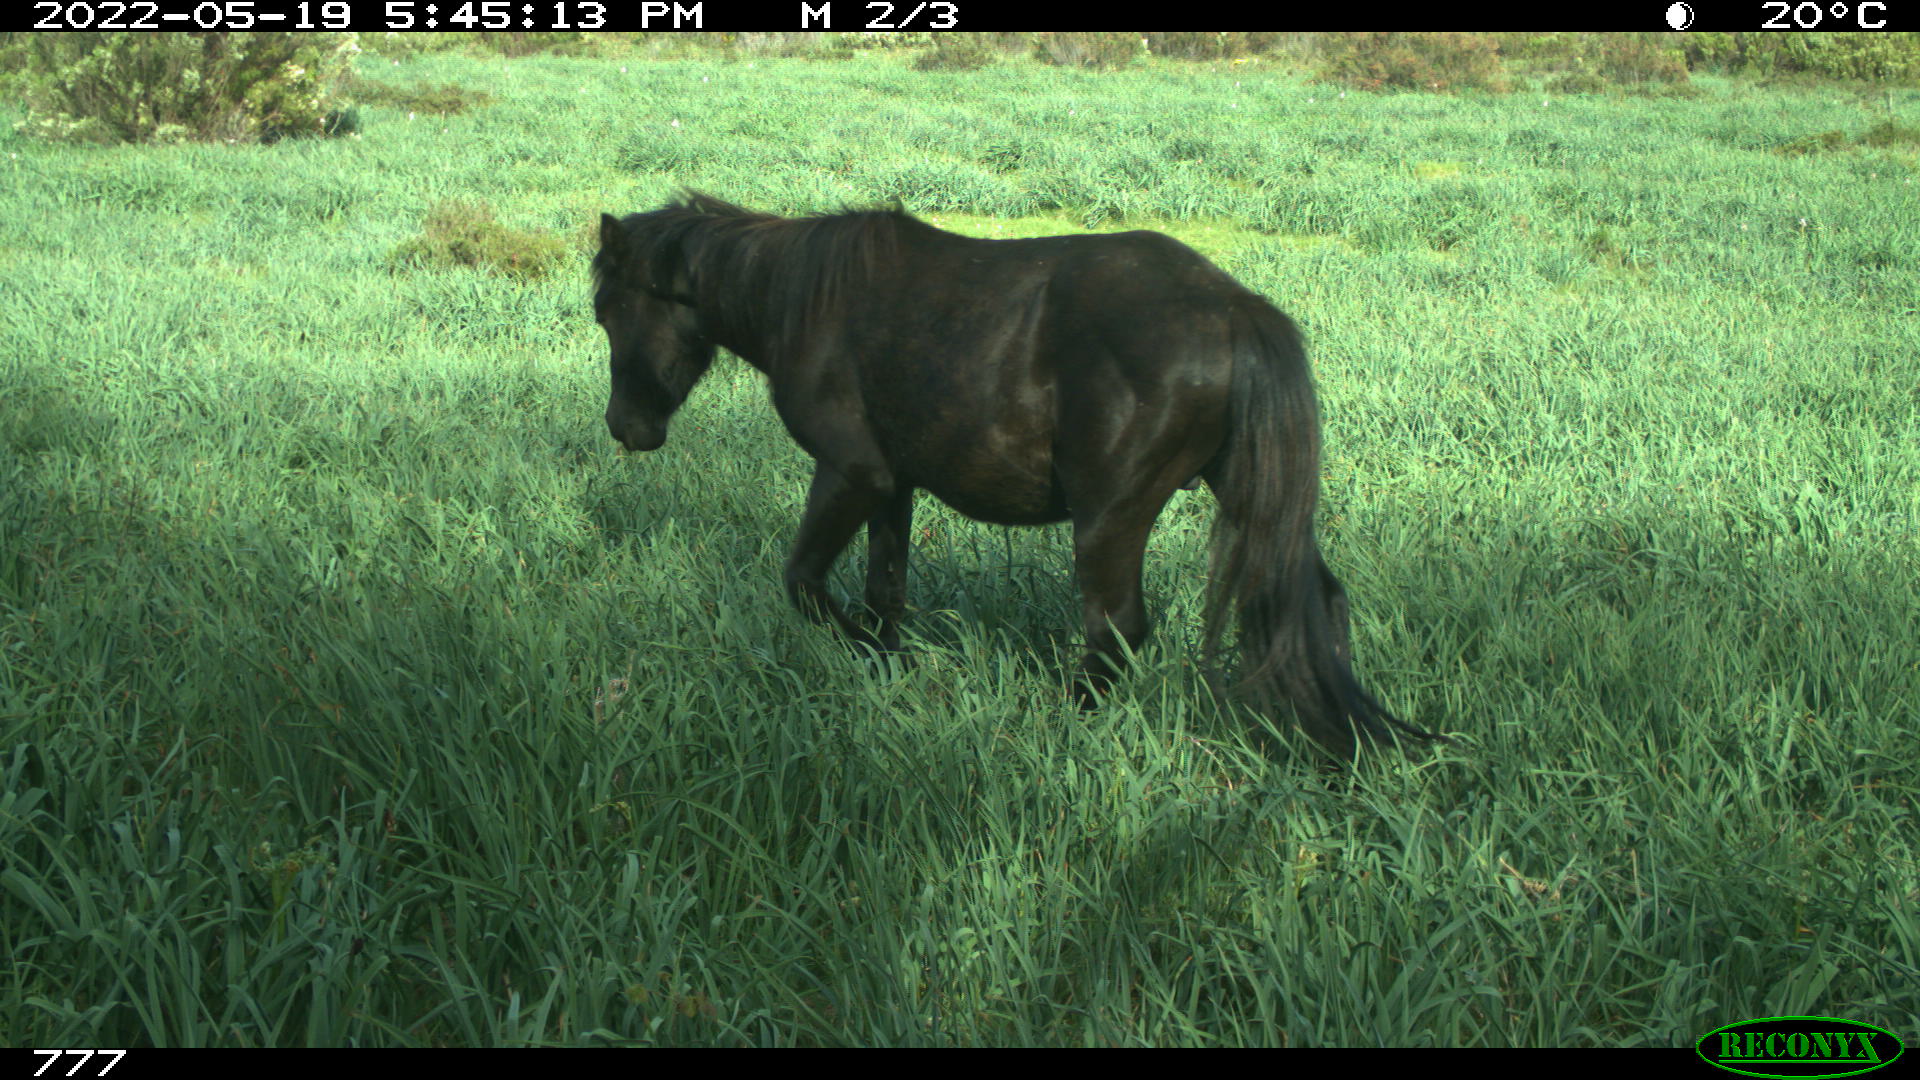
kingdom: Animalia
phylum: Chordata
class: Mammalia
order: Perissodactyla
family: Equidae
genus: Equus
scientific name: Equus caballus
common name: Horse
